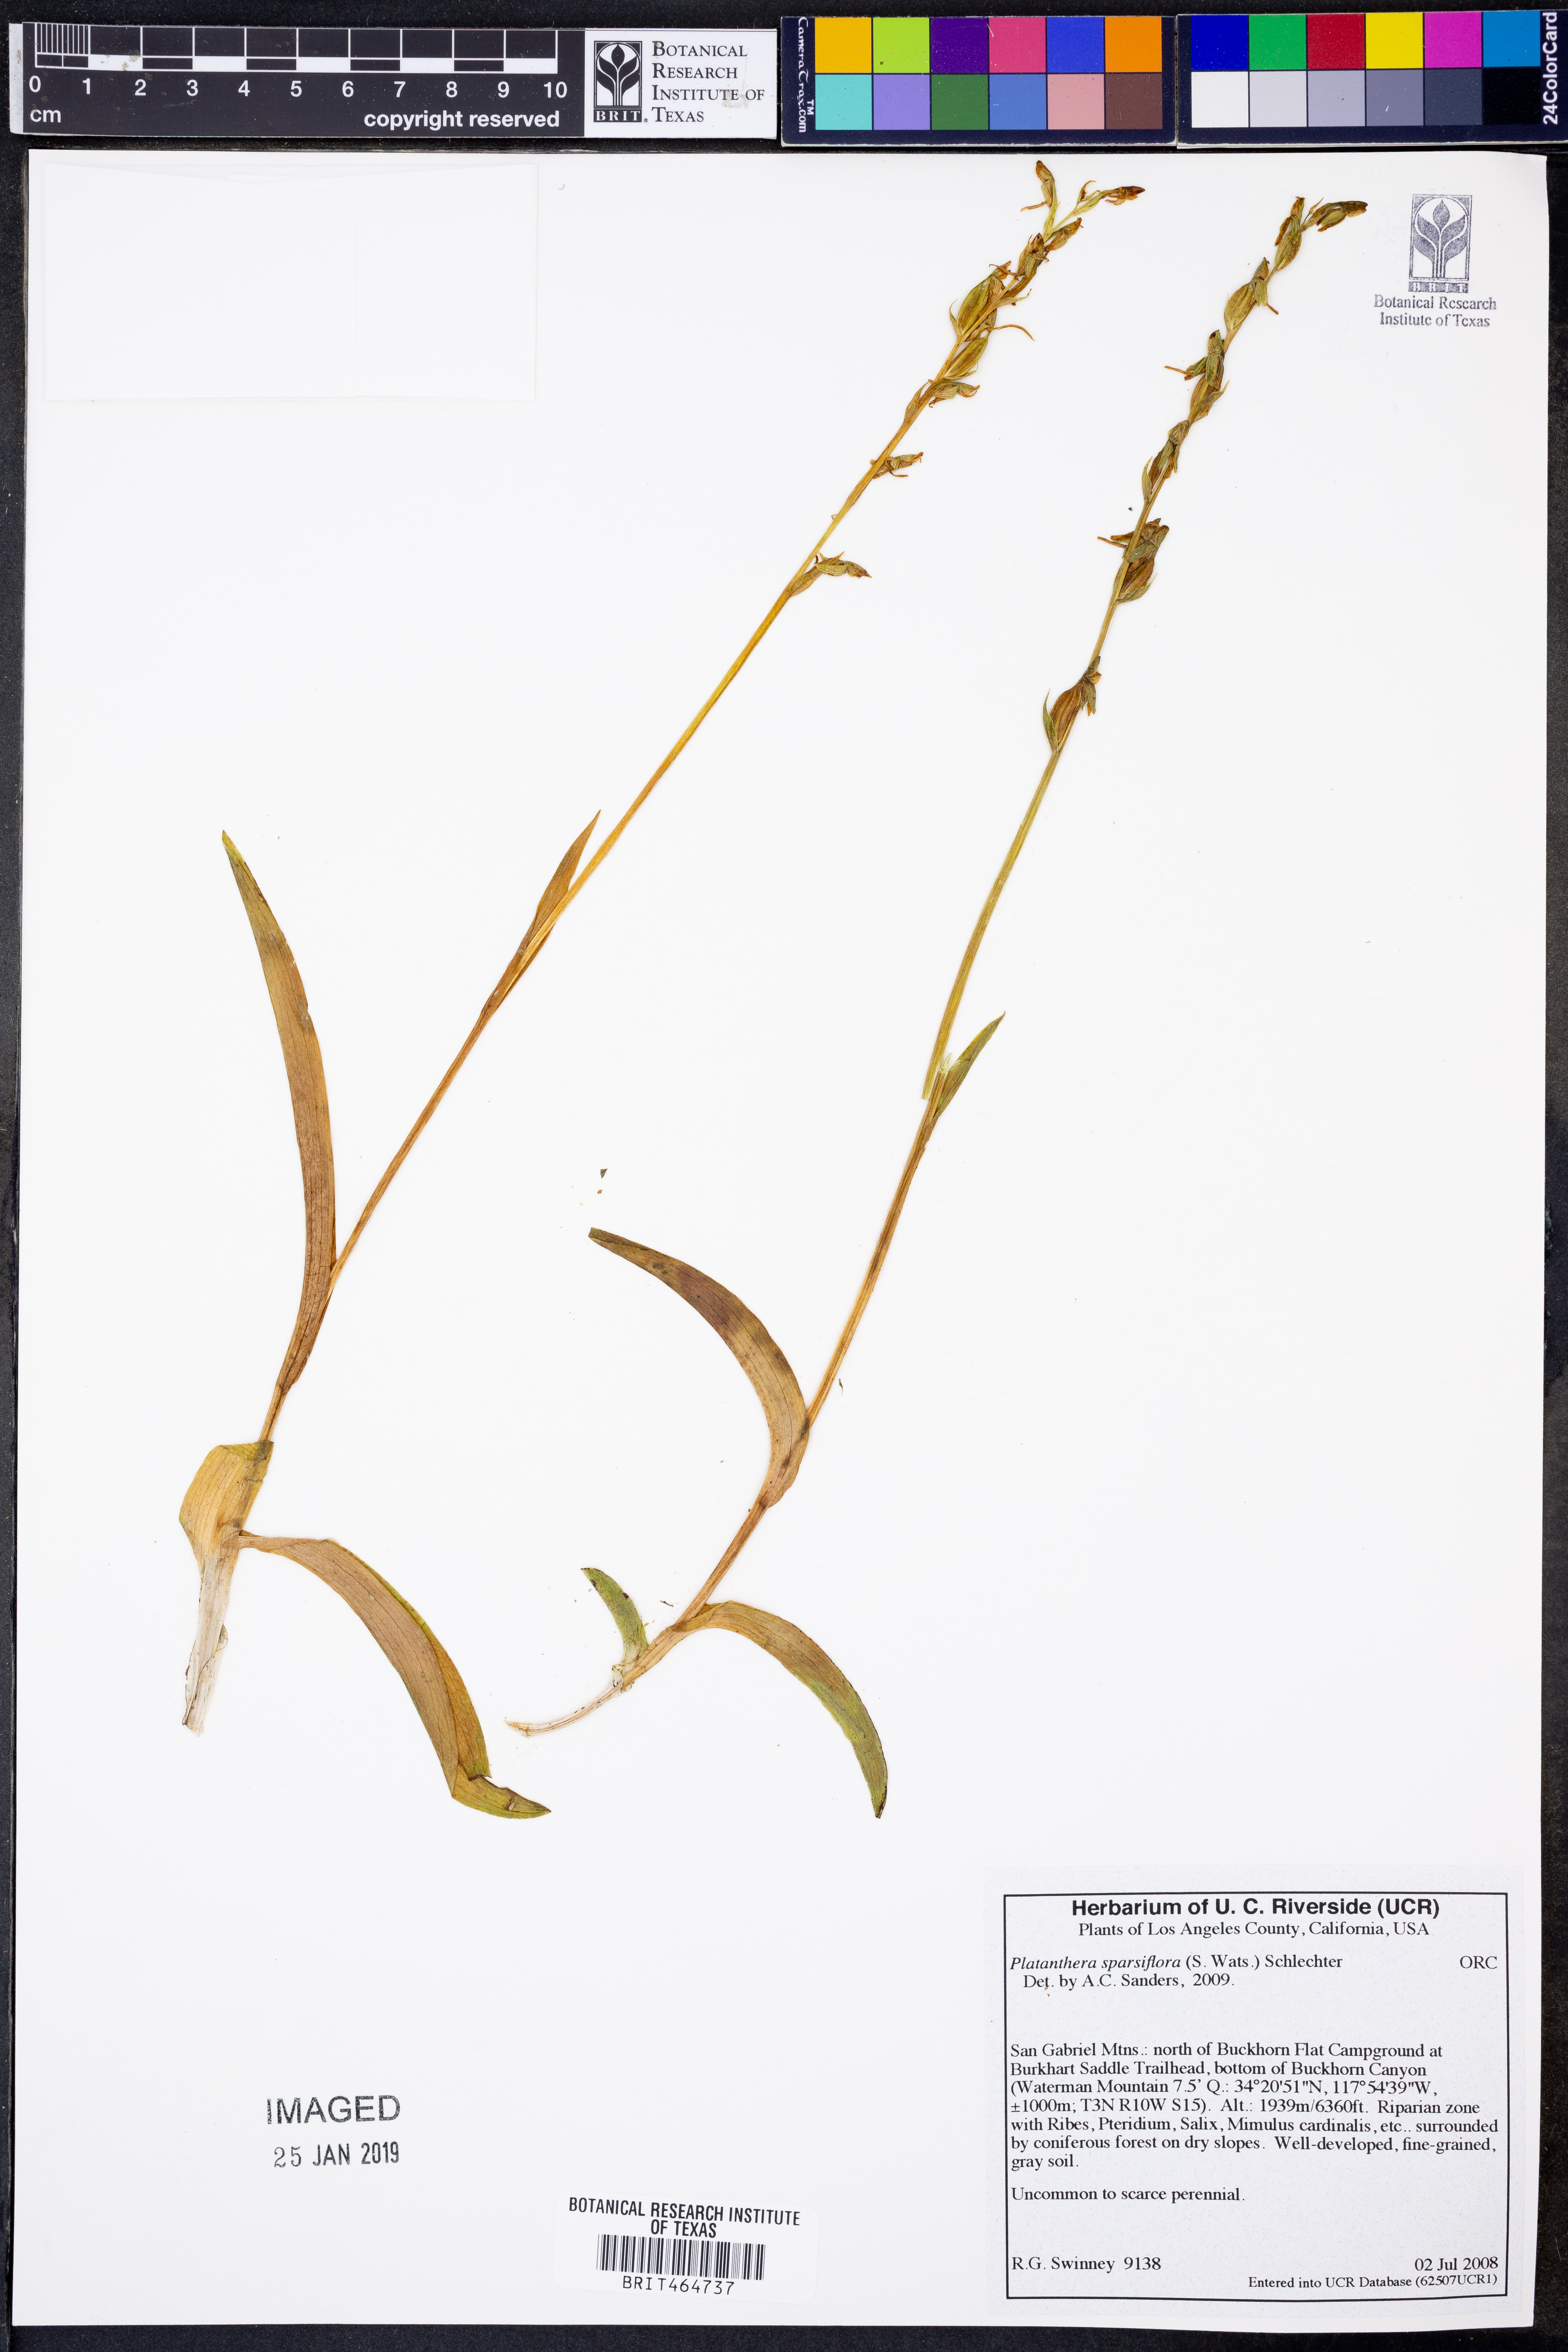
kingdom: Plantae
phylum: Tracheophyta
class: Liliopsida
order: Asparagales
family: Orchidaceae
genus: Platanthera
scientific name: Platanthera sparsiflora
